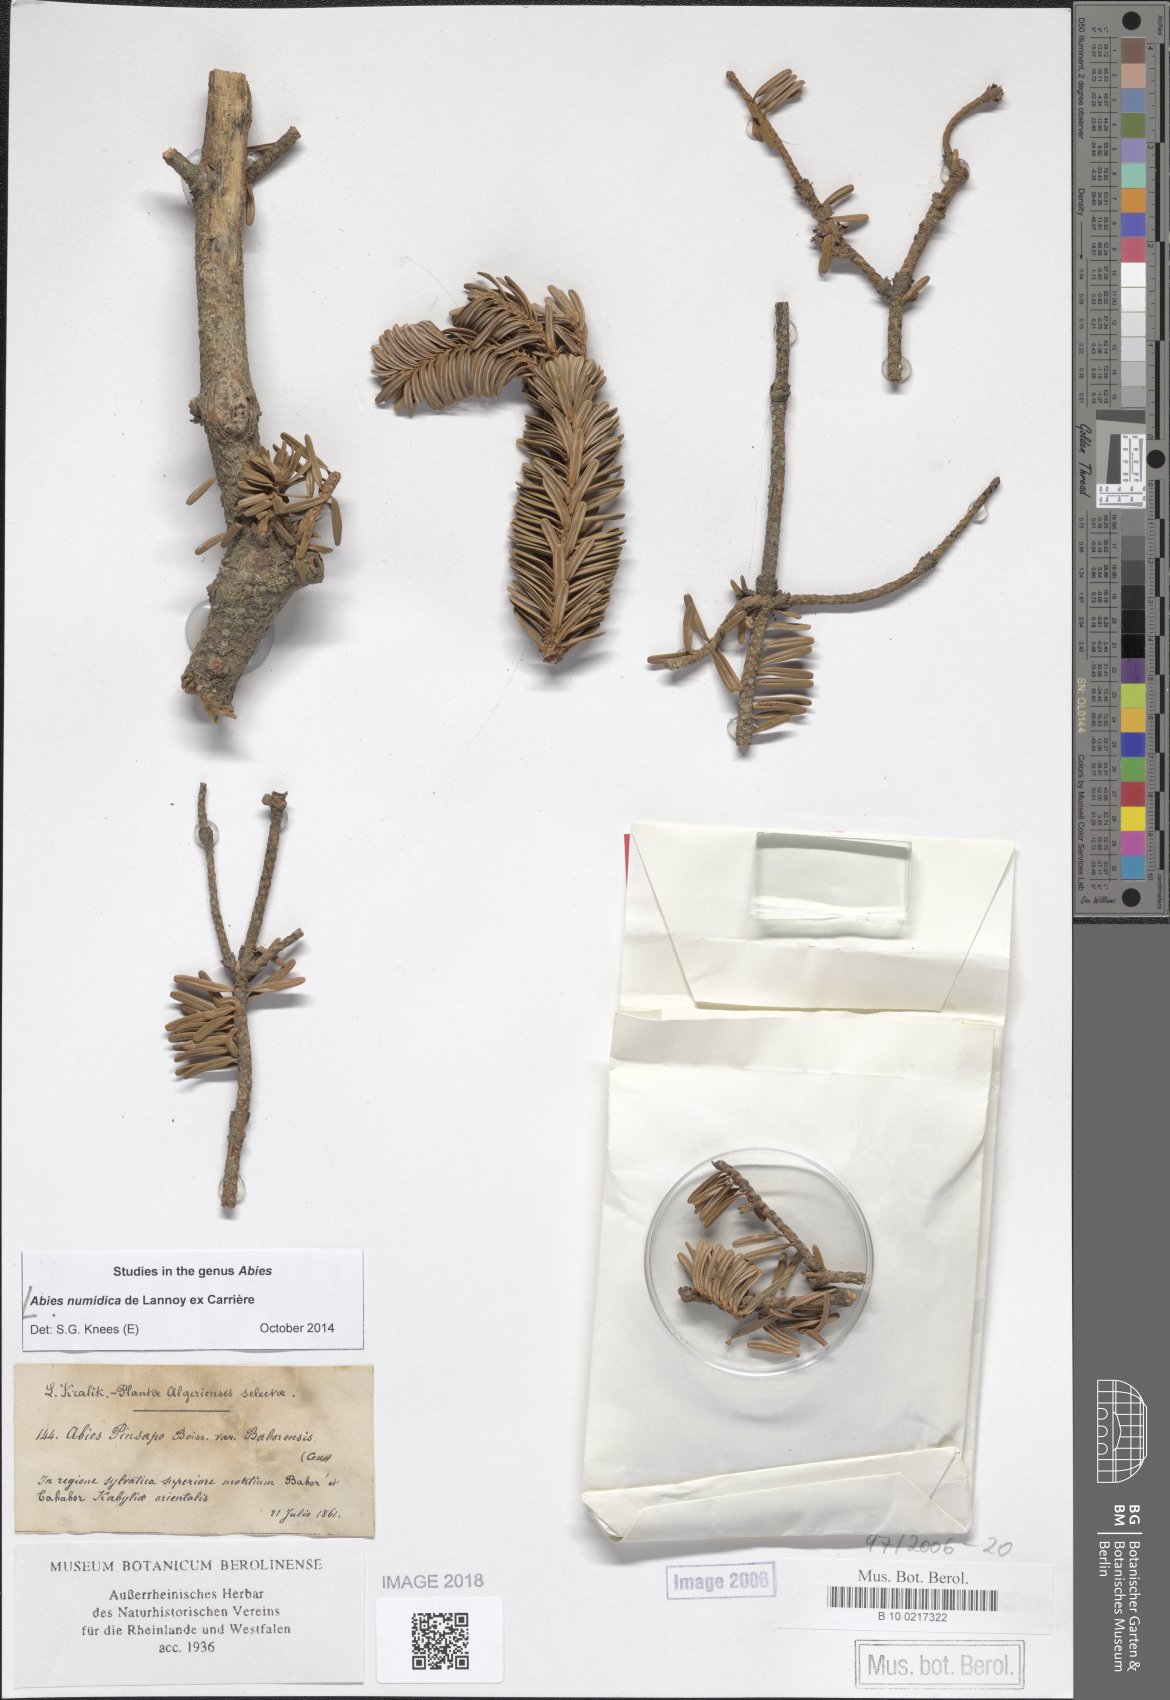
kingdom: Plantae
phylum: Tracheophyta
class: Pinopsida
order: Pinales
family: Pinaceae
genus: Abies
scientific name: Abies numidica
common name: Algerian fir
